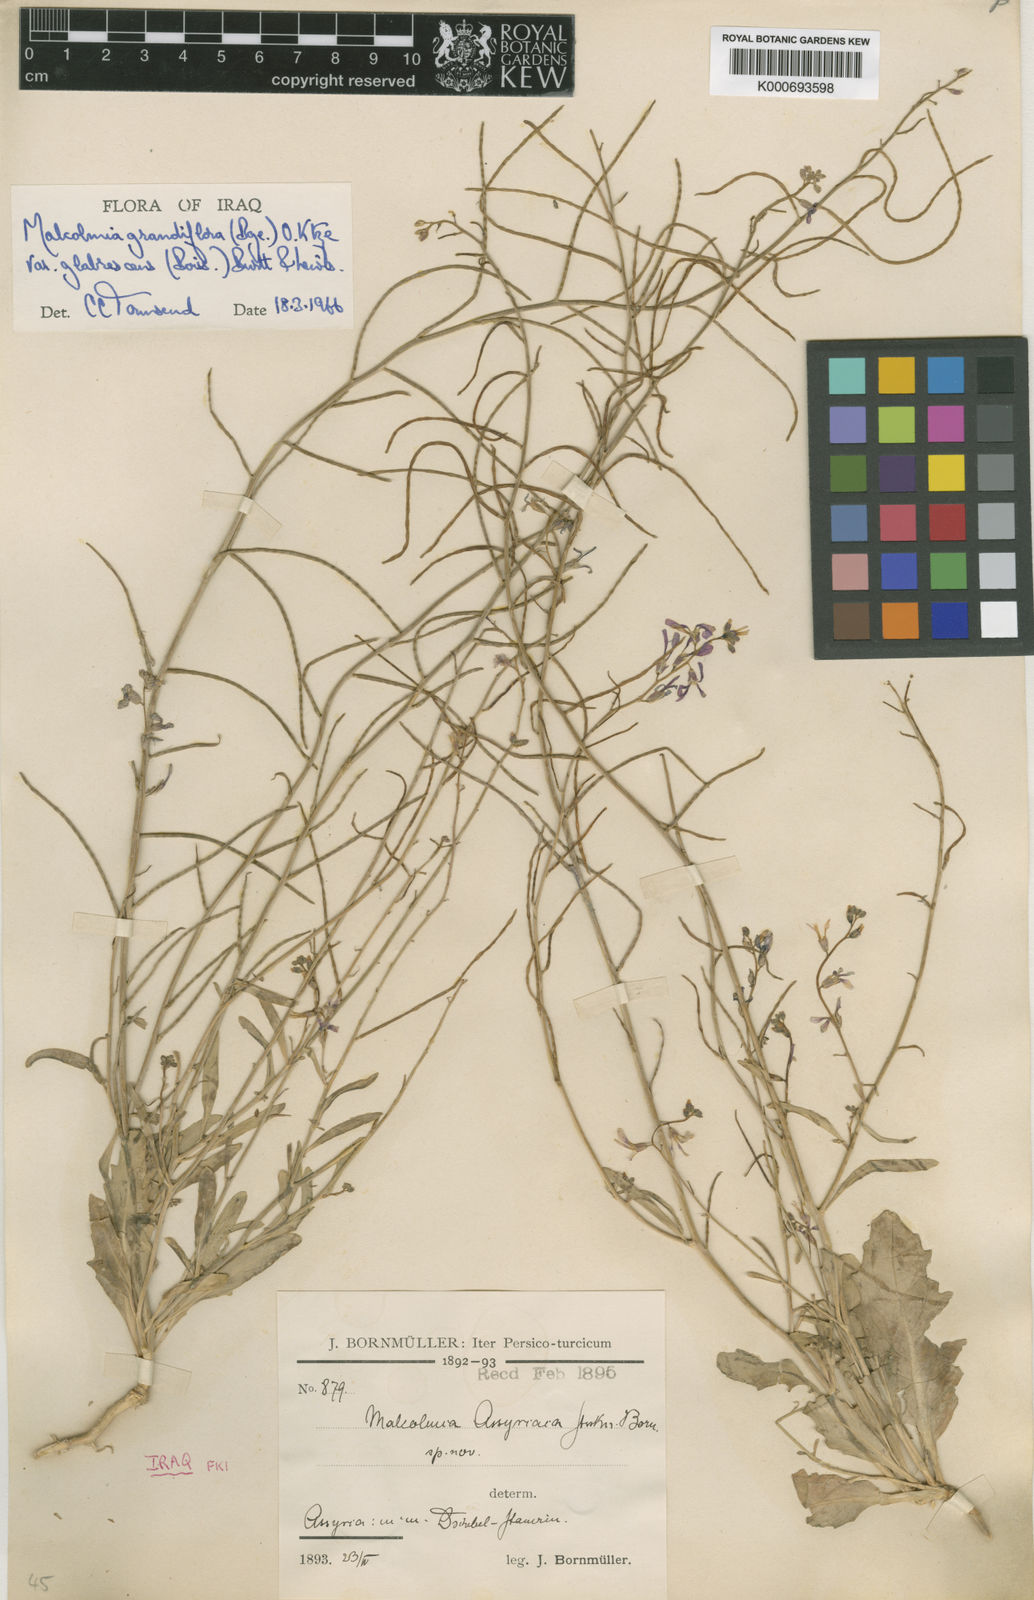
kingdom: Plantae
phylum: Tracheophyta
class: Magnoliopsida
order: Brassicales
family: Brassicaceae
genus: Strigosella
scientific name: Strigosella grandiflora
